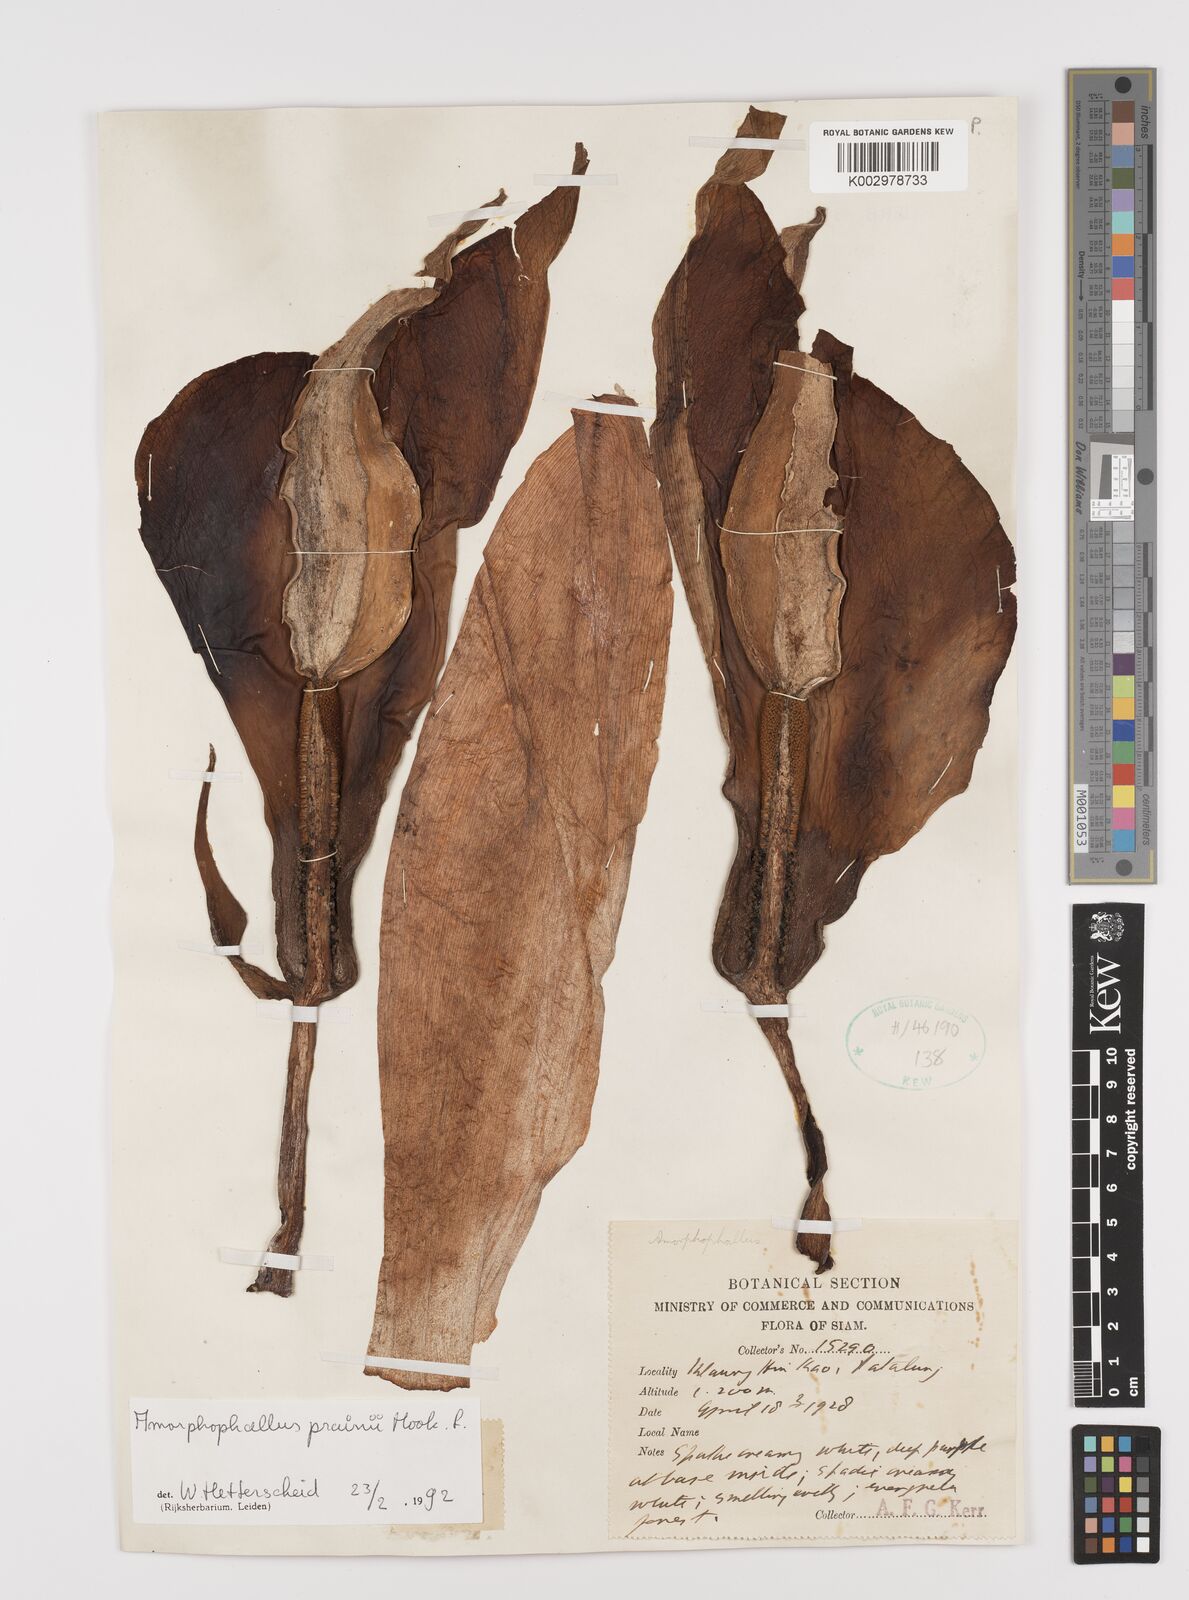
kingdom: Plantae
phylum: Tracheophyta
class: Liliopsida
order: Alismatales
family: Araceae
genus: Amorphophallus
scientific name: Amorphophallus prainii
